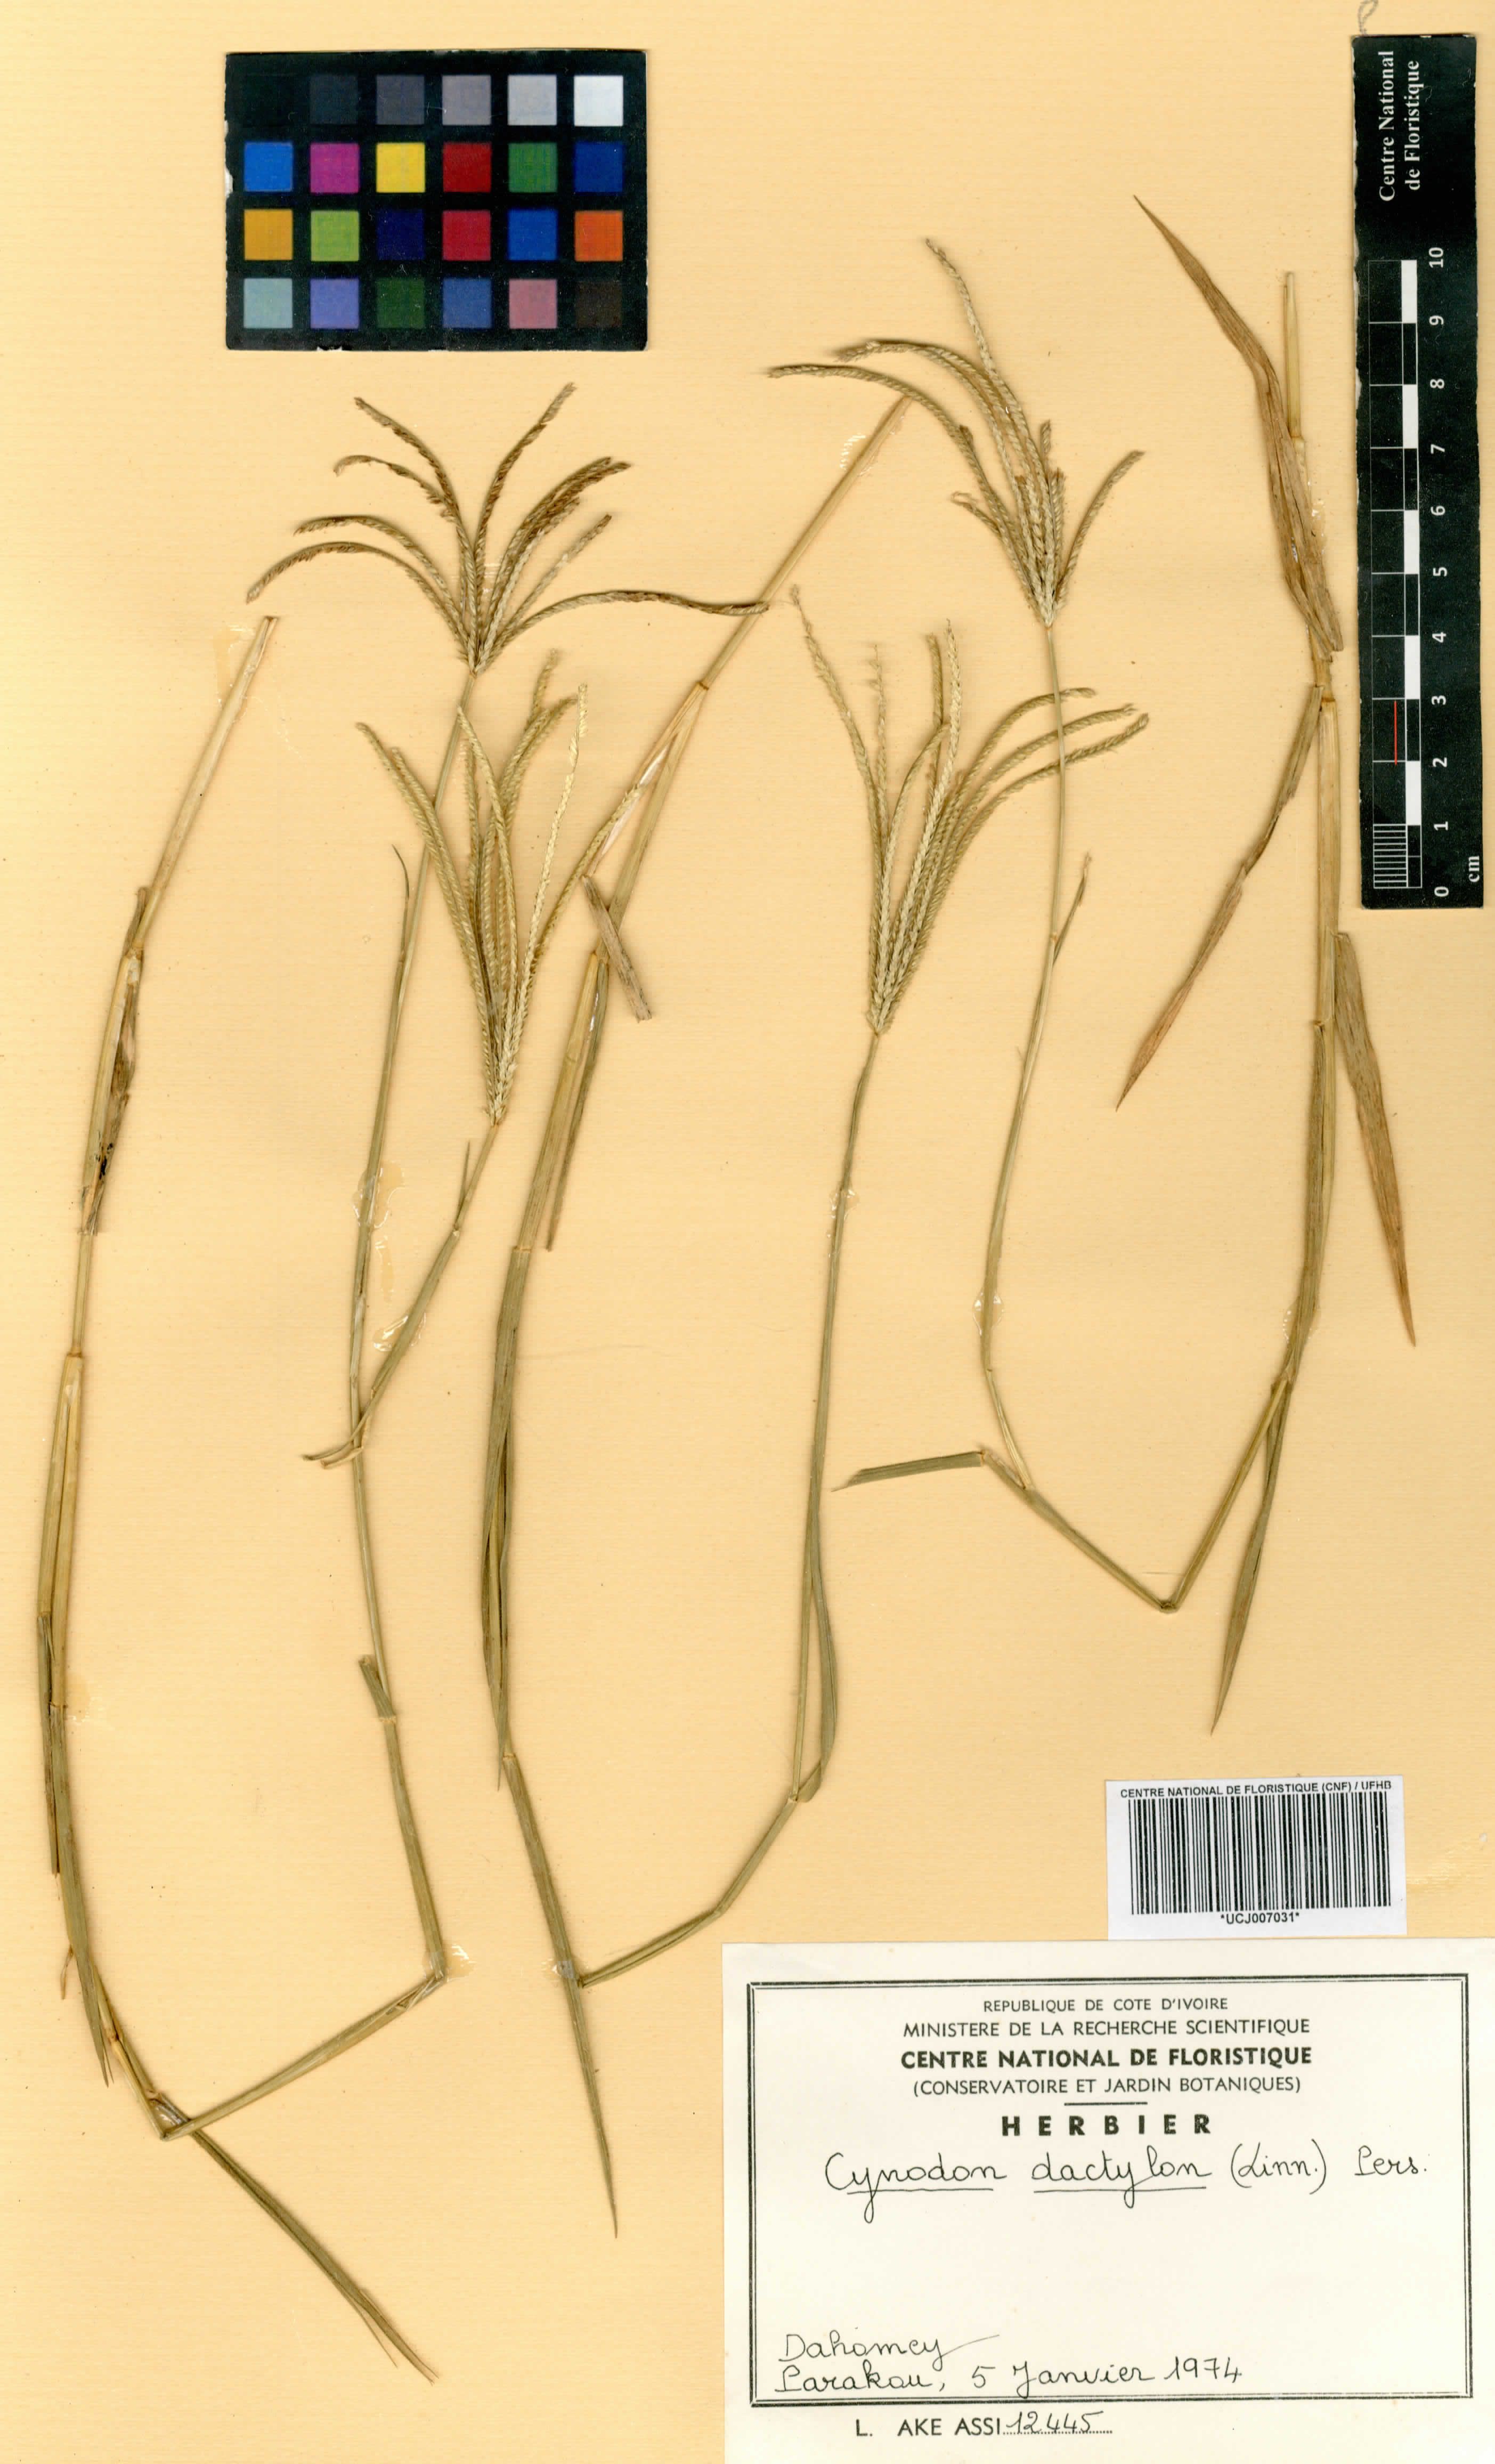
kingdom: Plantae
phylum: Tracheophyta
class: Liliopsida
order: Poales
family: Poaceae
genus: Cynodon
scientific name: Cynodon dactylon
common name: Bermuda grass
